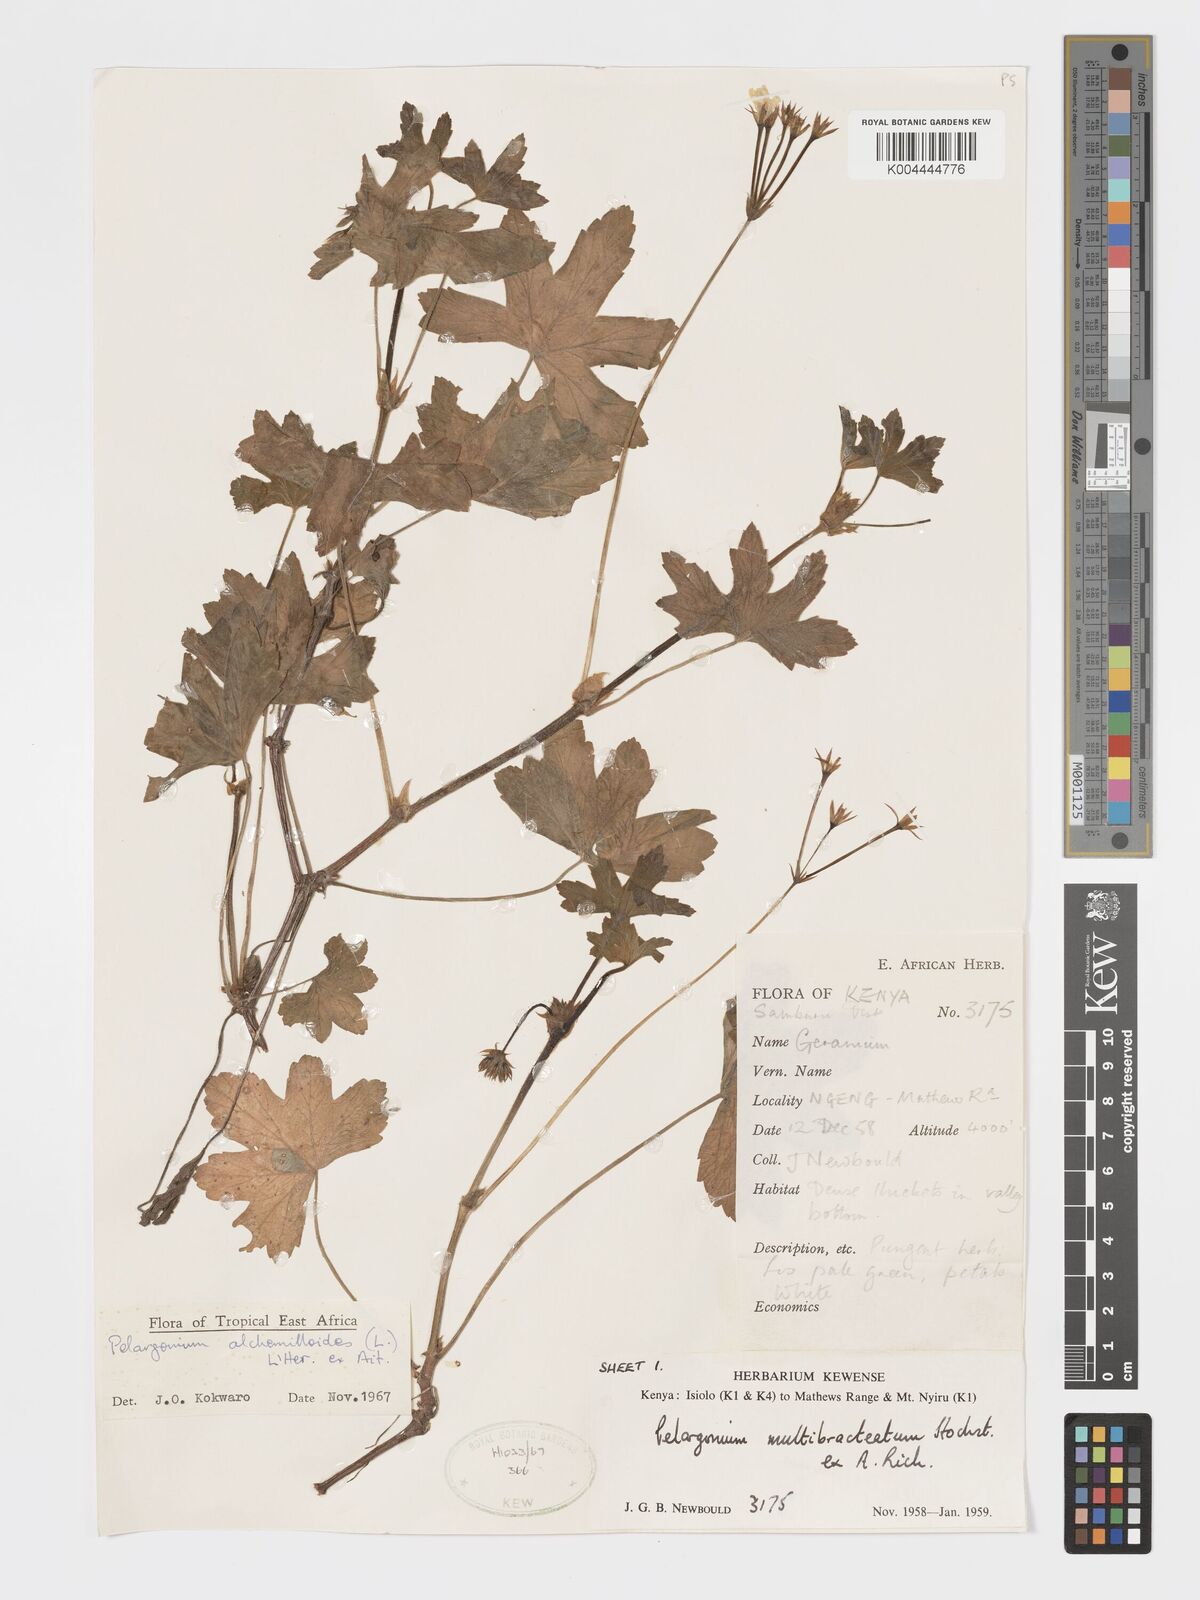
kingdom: Plantae
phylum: Tracheophyta
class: Magnoliopsida
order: Geraniales
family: Geraniaceae
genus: Pelargonium
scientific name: Pelargonium alchemilloides
